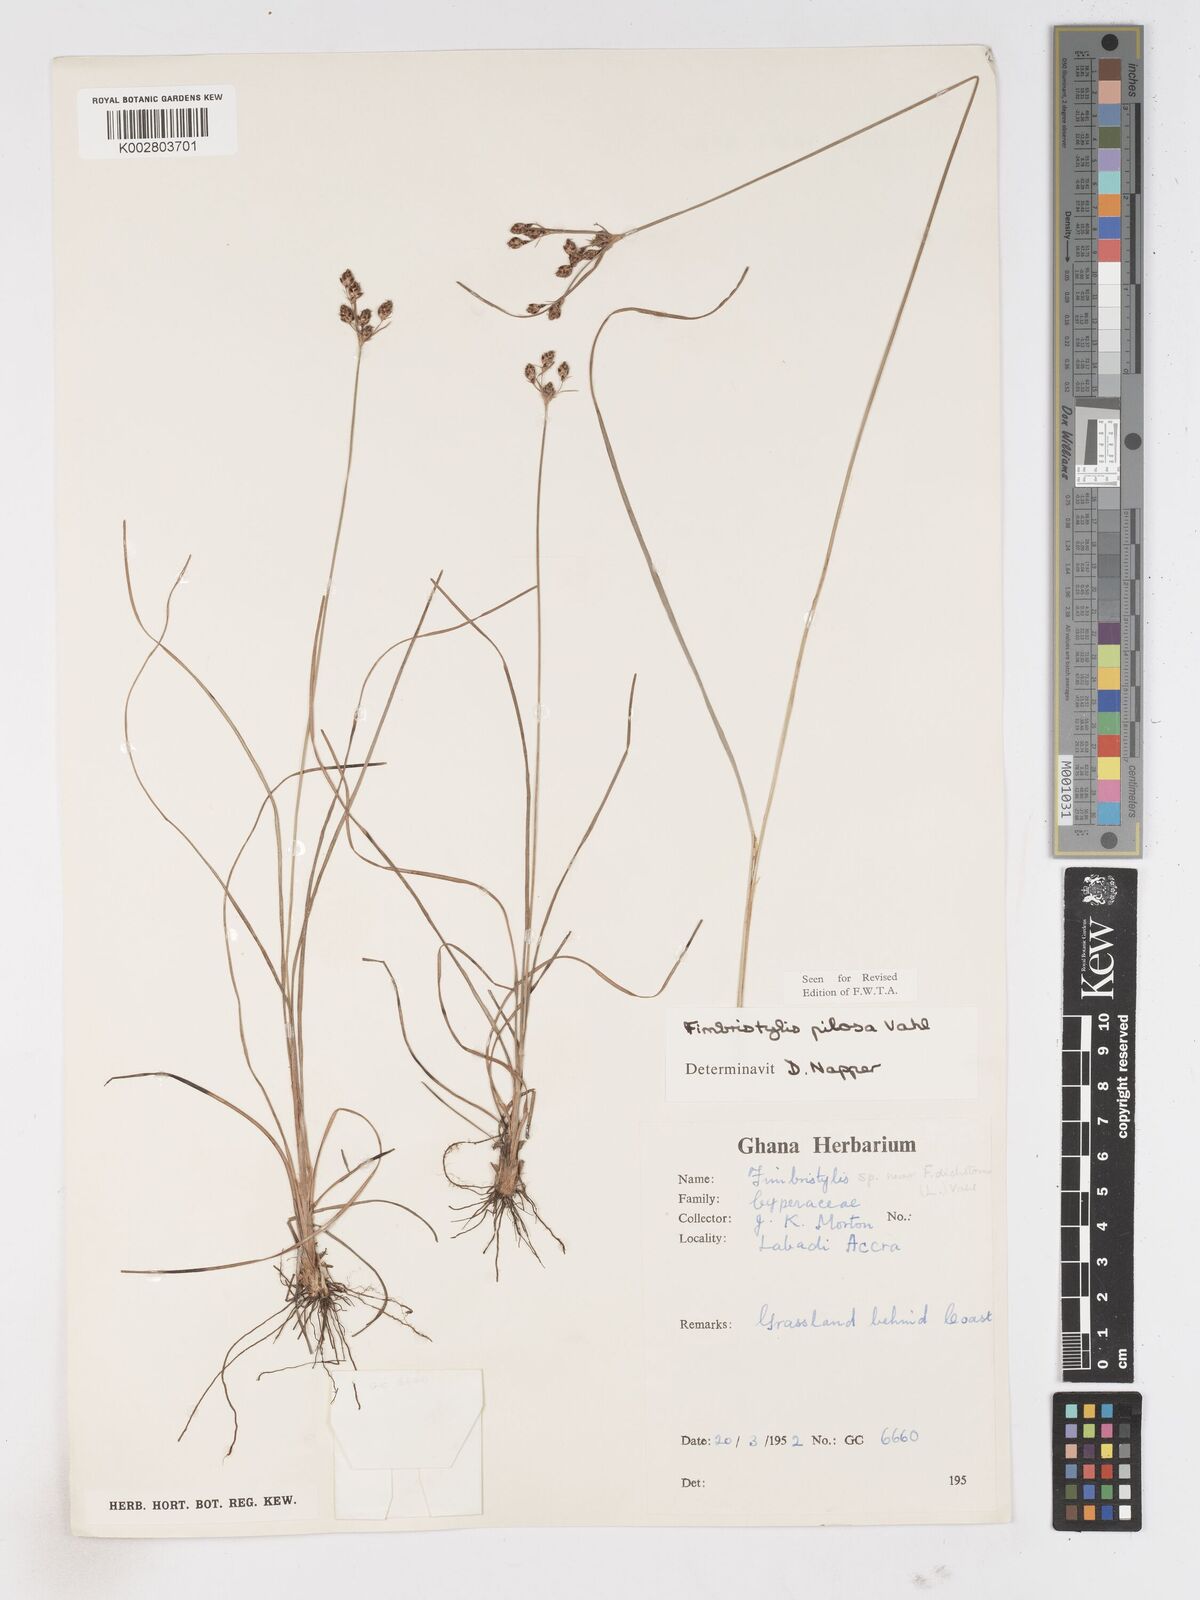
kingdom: Plantae
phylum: Tracheophyta
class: Liliopsida
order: Poales
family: Cyperaceae
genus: Fimbristylis
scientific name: Fimbristylis pilosa
